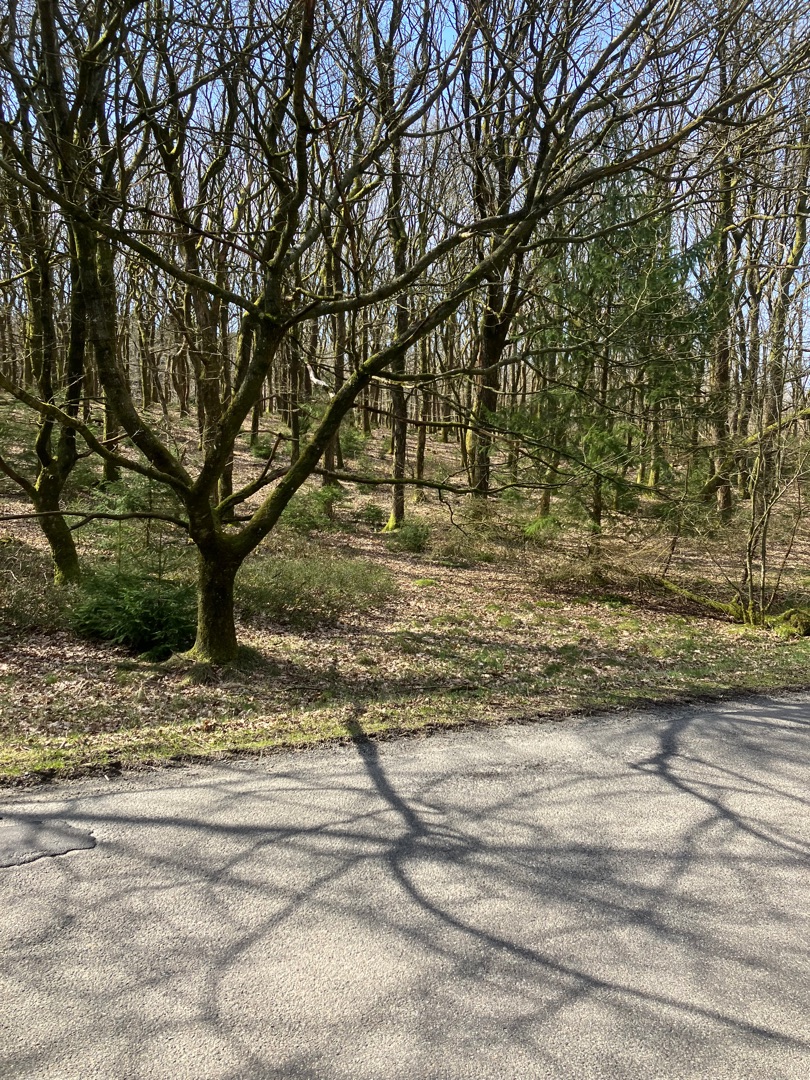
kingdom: Animalia
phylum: Arthropoda
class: Insecta
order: Lepidoptera
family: Pieridae
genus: Gonepteryx
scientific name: Gonepteryx rhamni
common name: Citronsommerfugl
